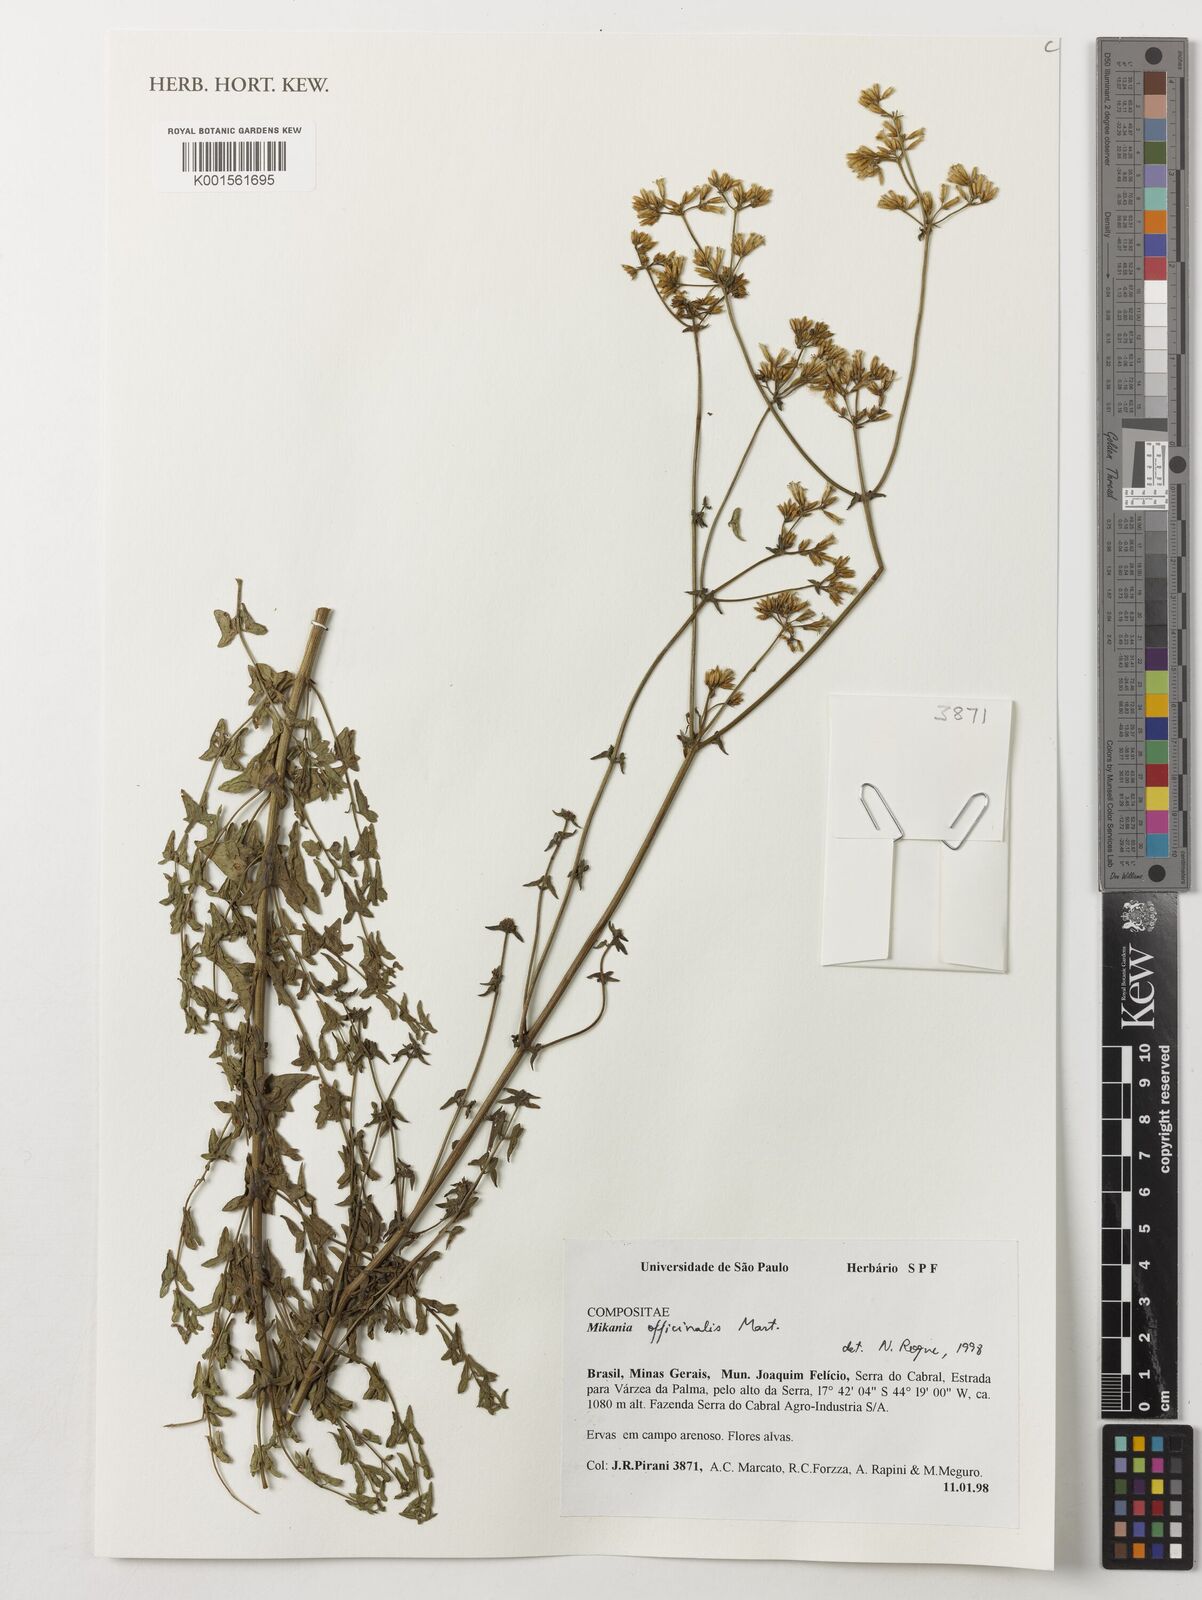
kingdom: Plantae
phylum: Tracheophyta
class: Magnoliopsida
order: Asterales
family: Asteraceae
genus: Mikania
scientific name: Mikania officinalis
